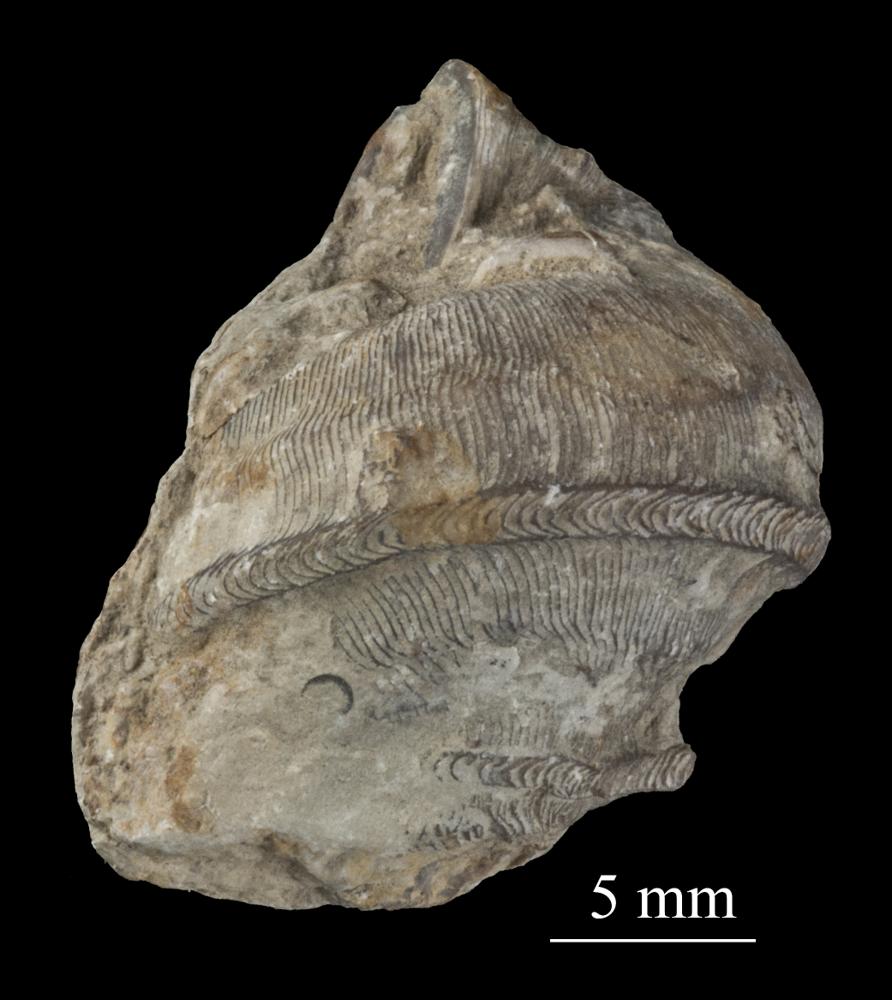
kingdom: Animalia
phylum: Mollusca
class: Gastropoda
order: Pleurotomariida
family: Phanerotrematidae
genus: Brachytomaria
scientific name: Brachytomaria nodulosa
